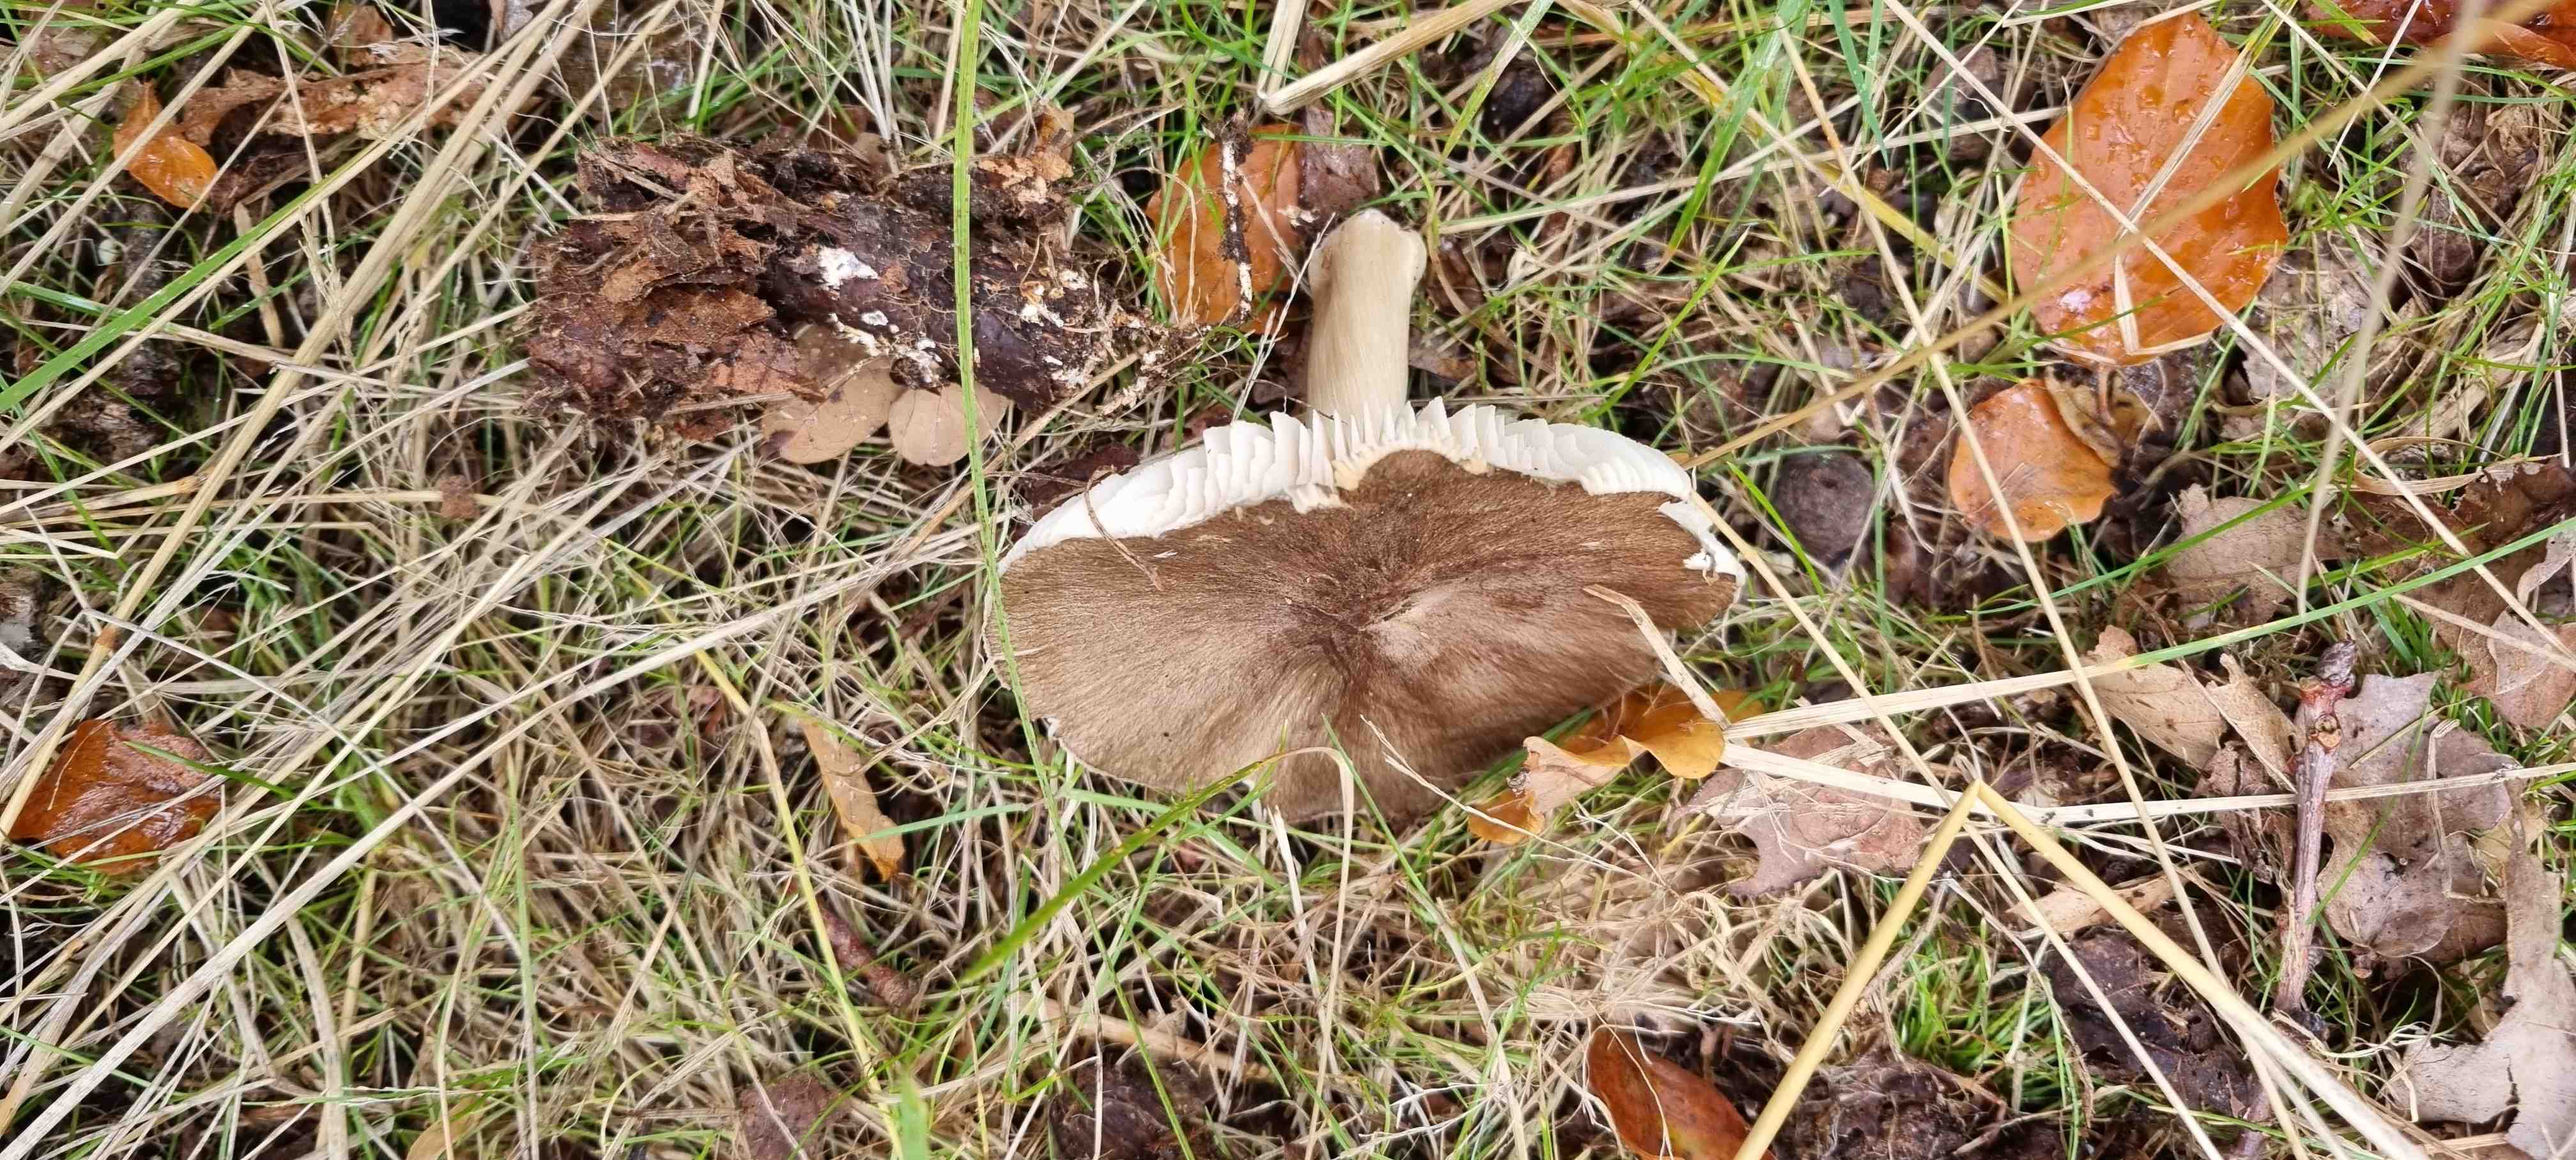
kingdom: Fungi
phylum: Basidiomycota
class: Agaricomycetes
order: Agaricales
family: Tricholomataceae
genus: Megacollybia
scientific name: Megacollybia platyphylla
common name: bredbladet væbnerhat
